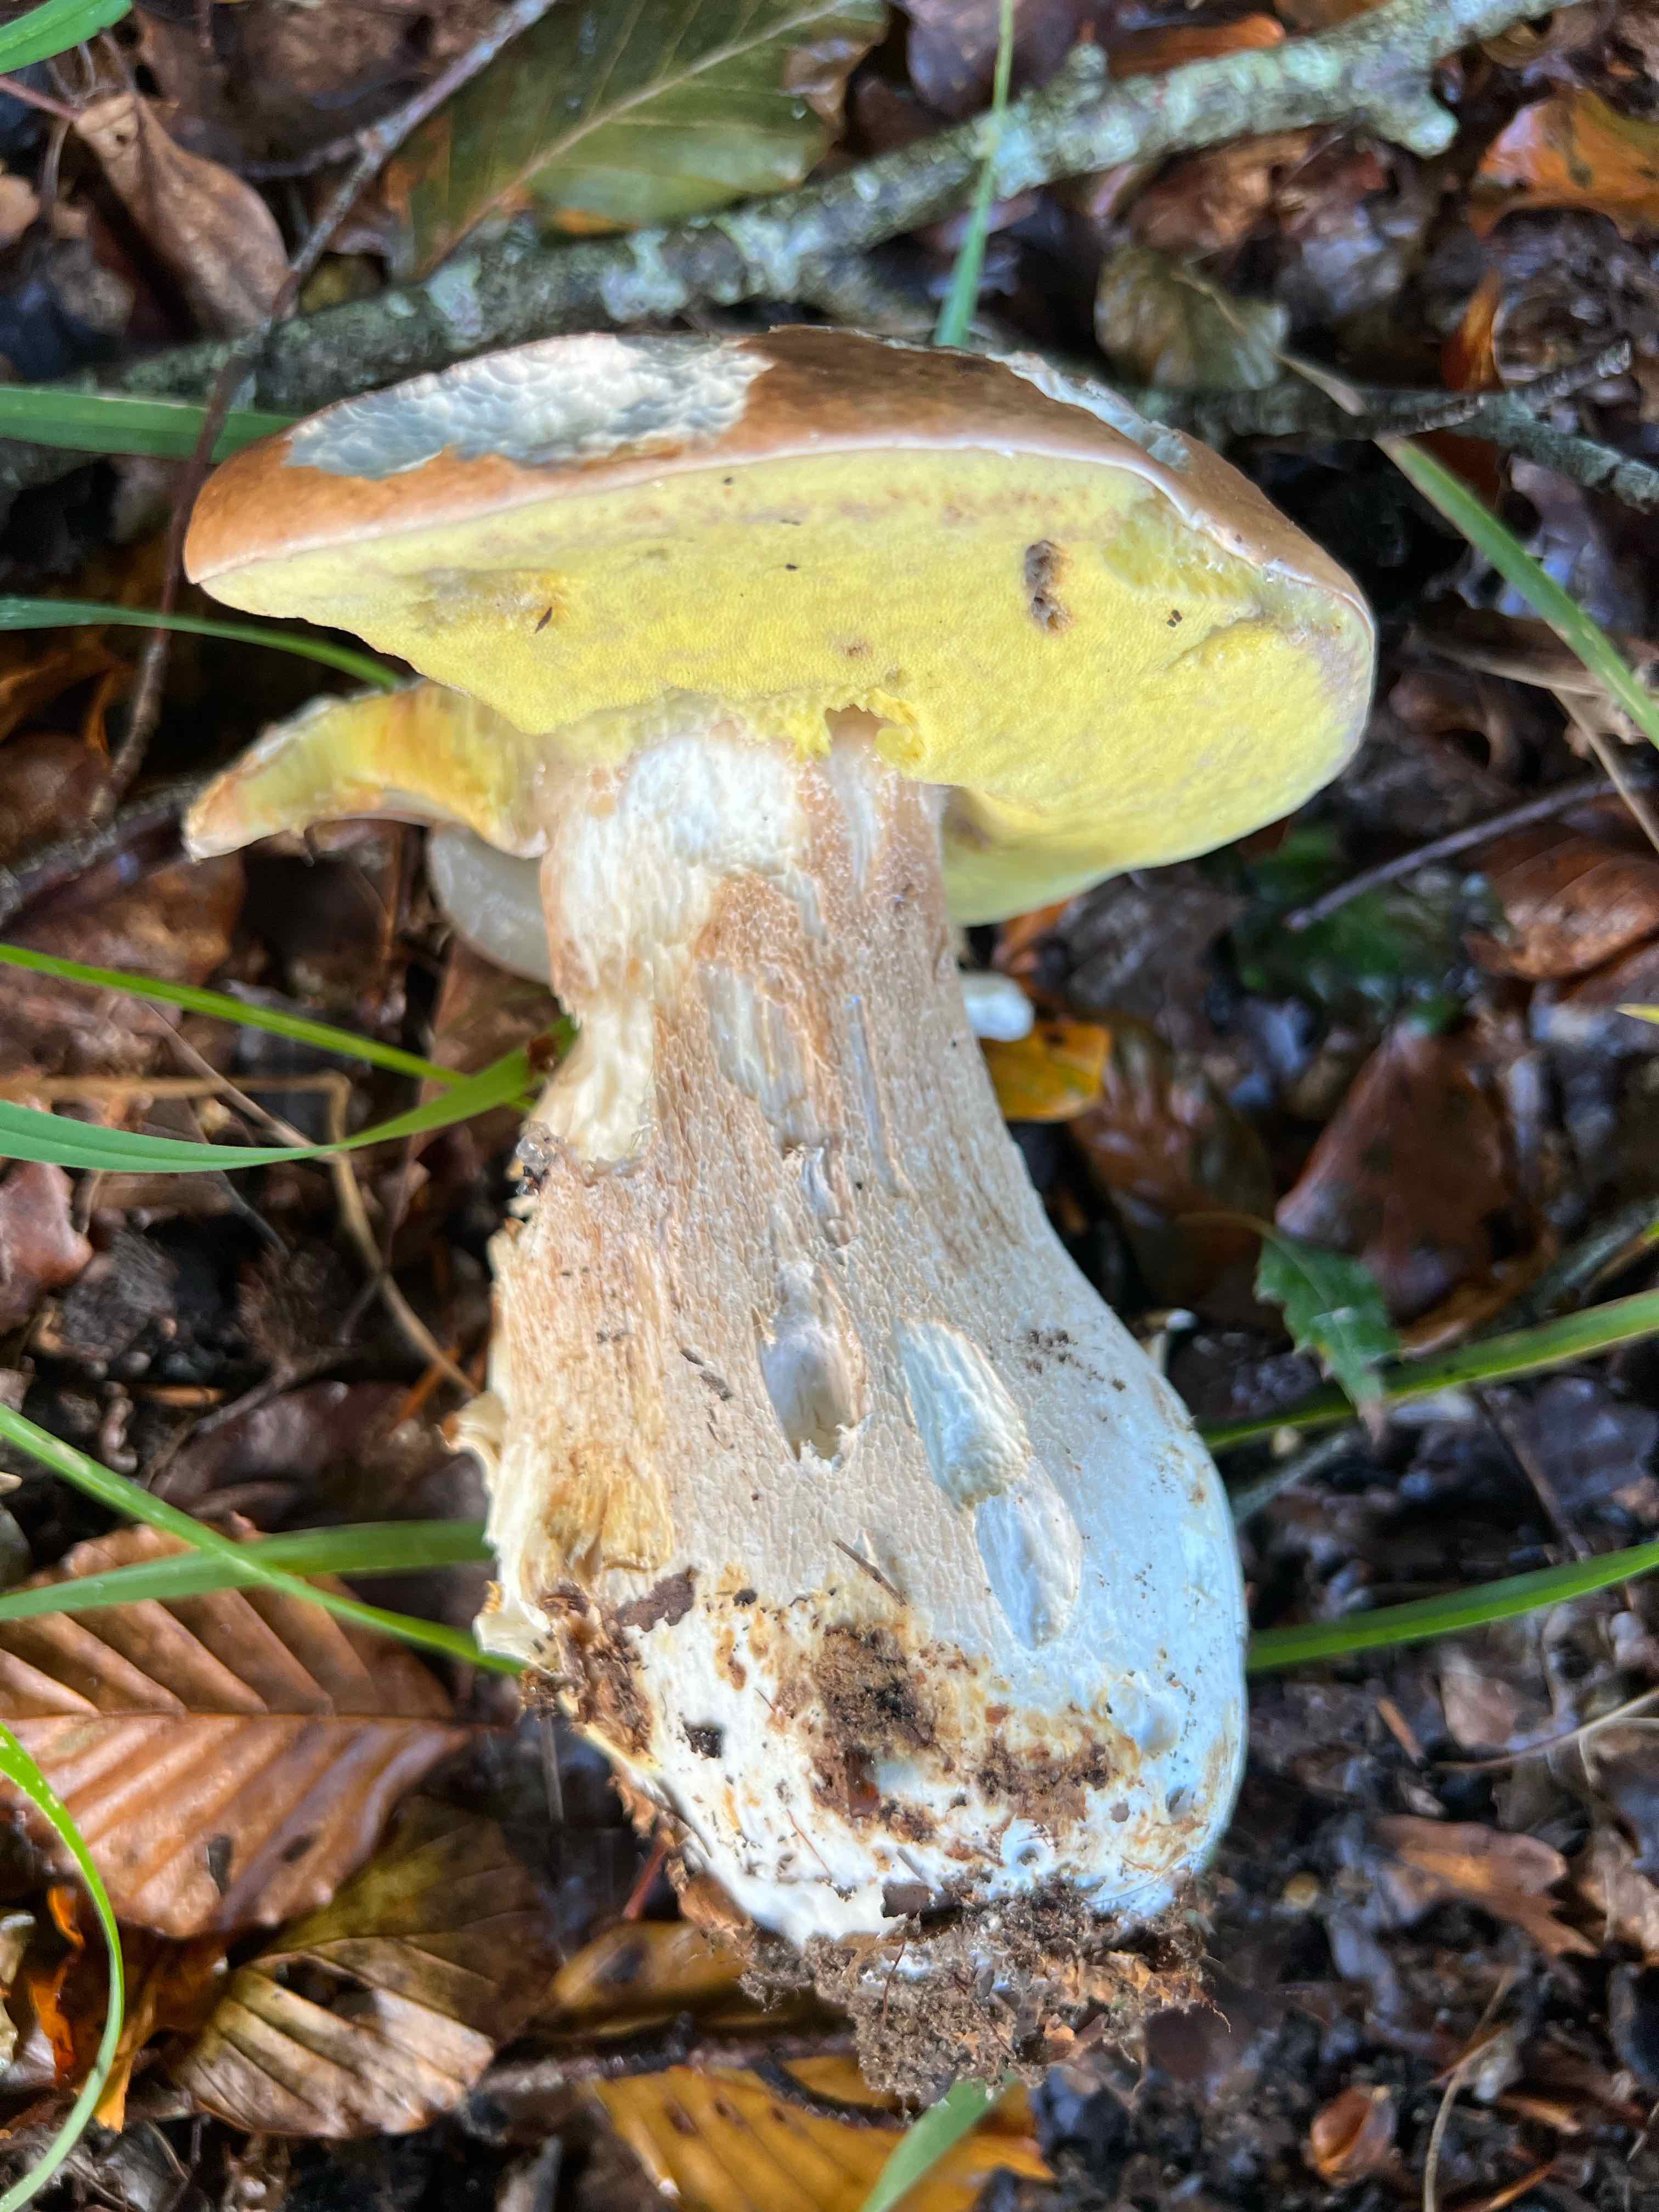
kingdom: Fungi
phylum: Basidiomycota
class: Agaricomycetes
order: Boletales
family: Boletaceae
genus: Boletus
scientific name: Boletus edulis
